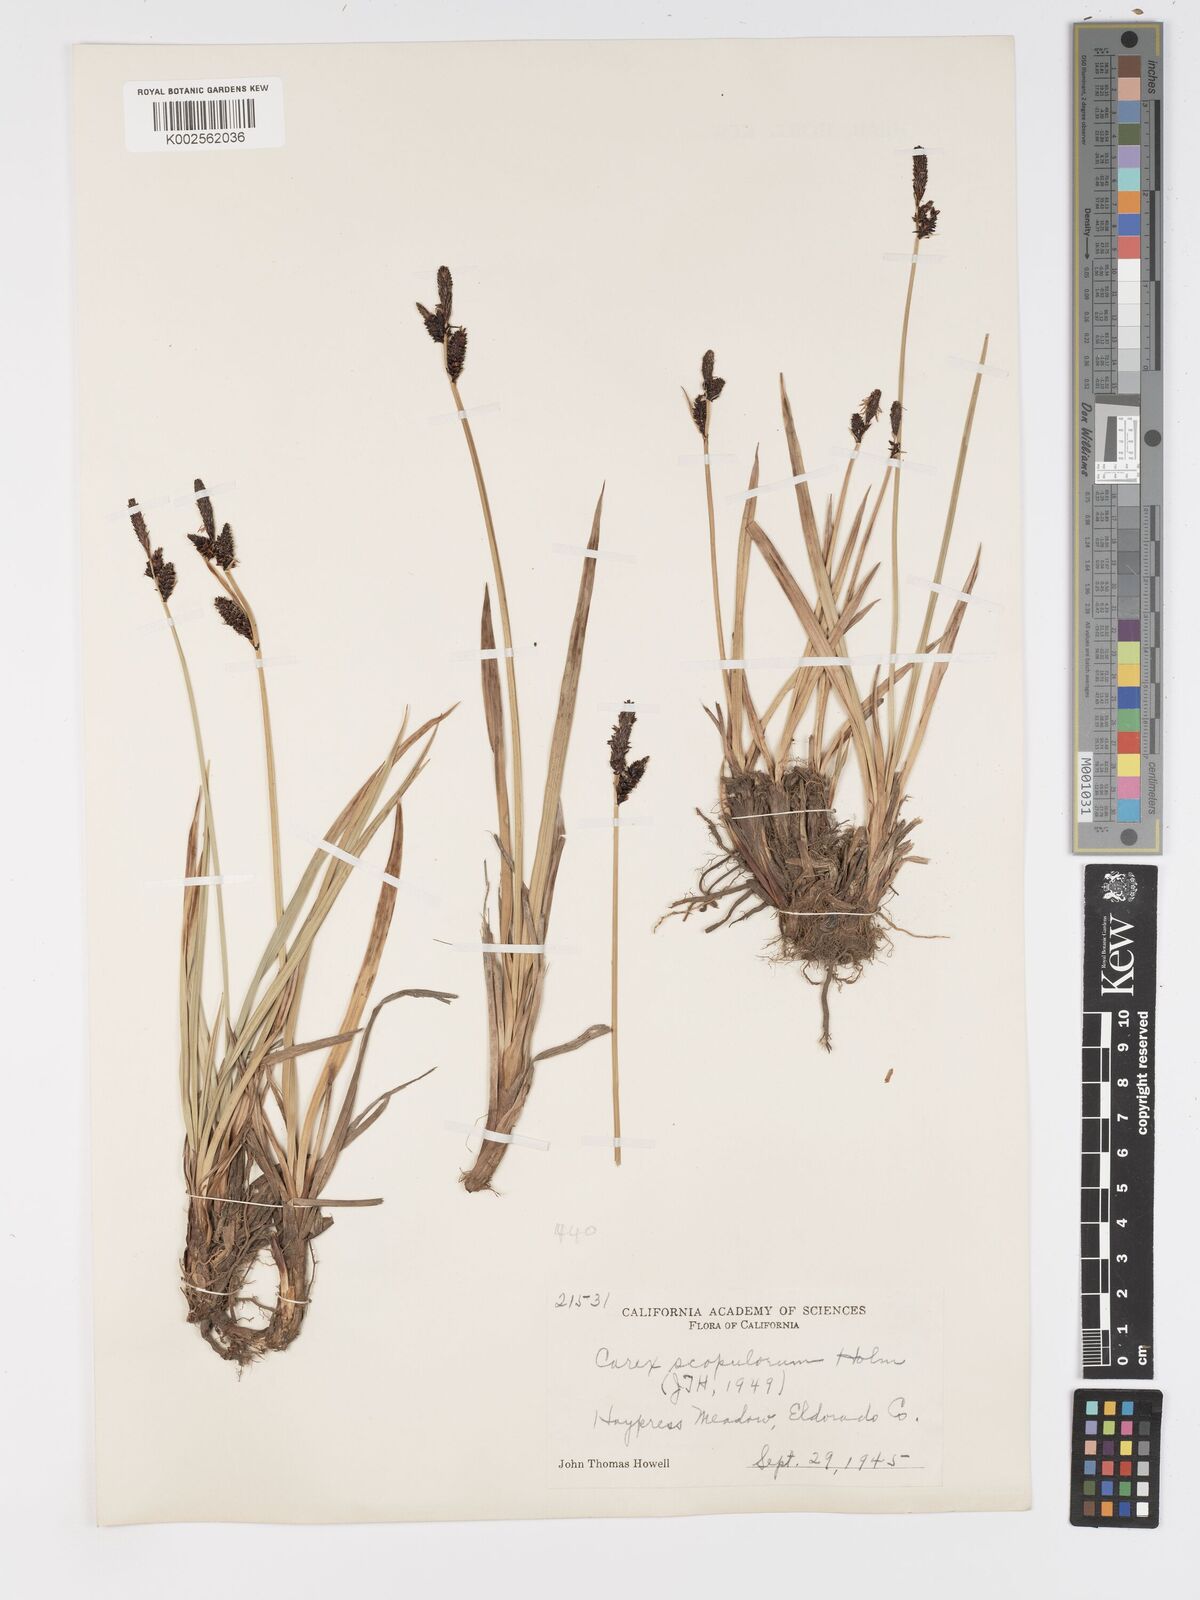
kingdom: Plantae
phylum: Tracheophyta
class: Liliopsida
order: Poales
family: Cyperaceae
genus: Carex
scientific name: Carex scopulorum
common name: Holm's rocky mountain sedge
